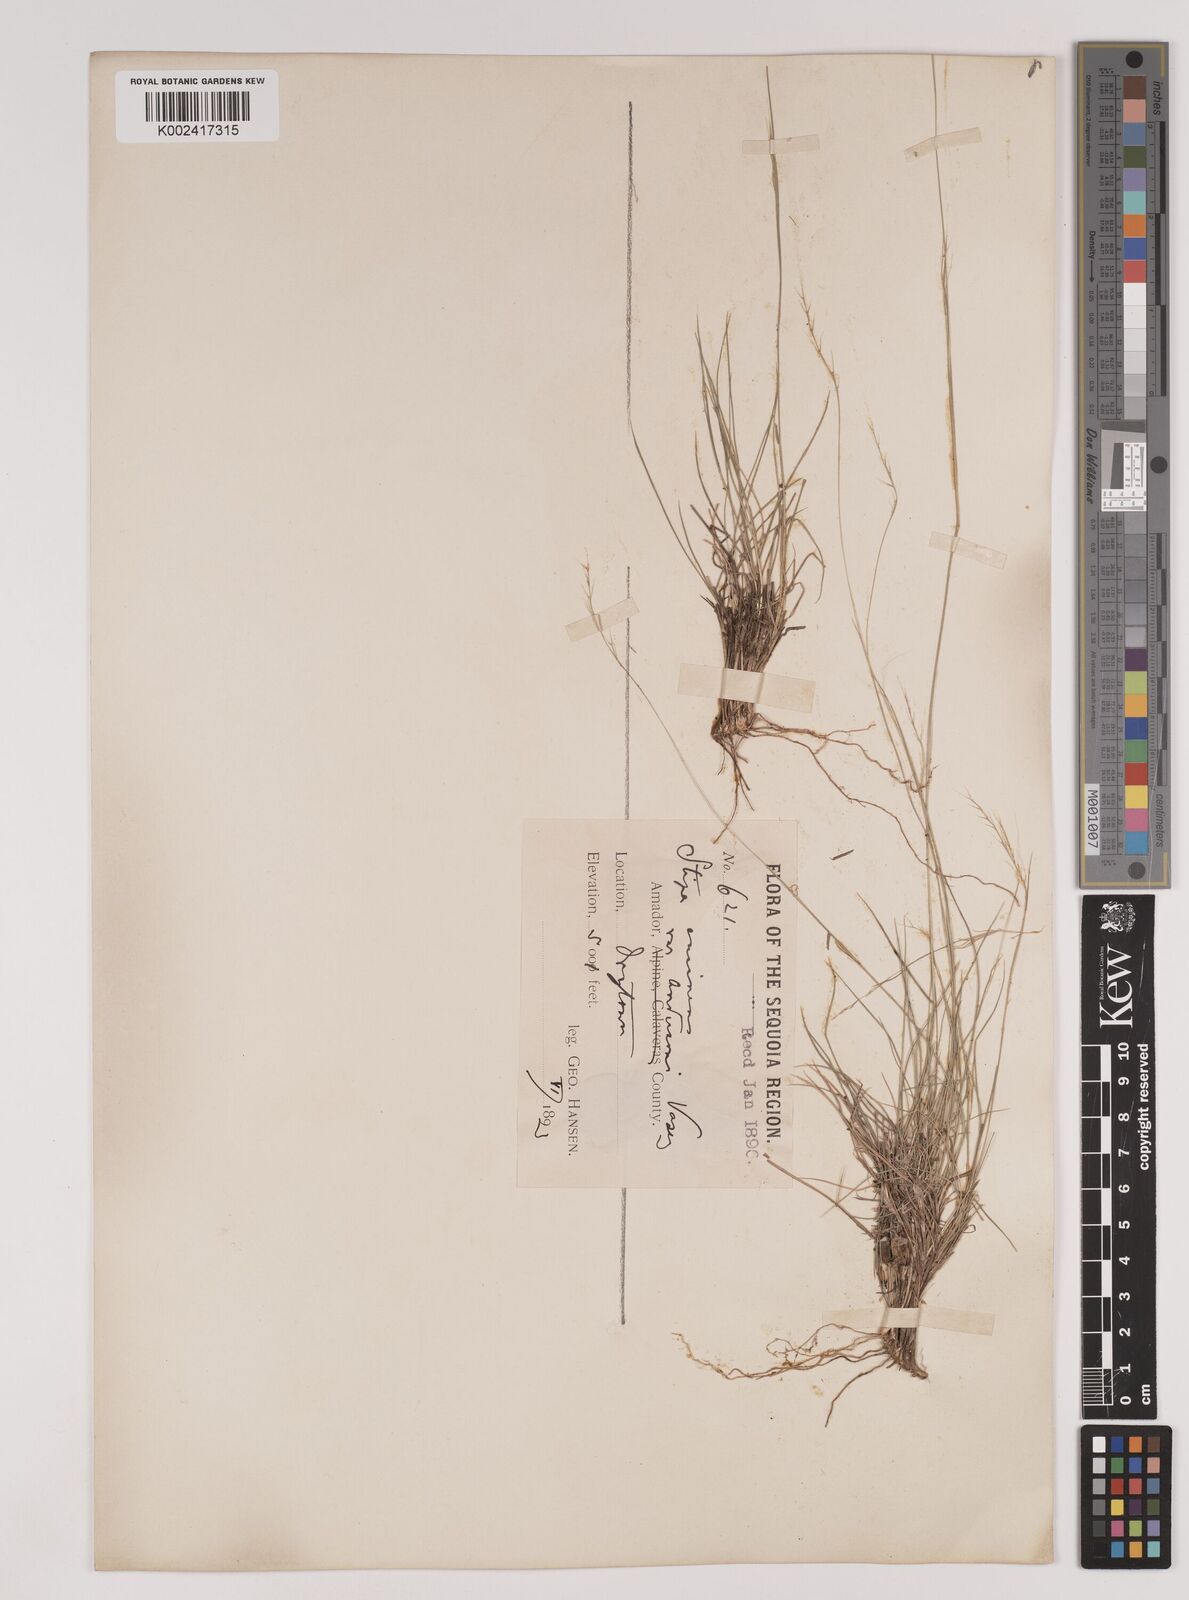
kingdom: Plantae
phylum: Tracheophyta
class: Liliopsida
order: Poales
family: Poaceae
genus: Nassella
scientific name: Nassella lepida
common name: Foothill needlegrass
